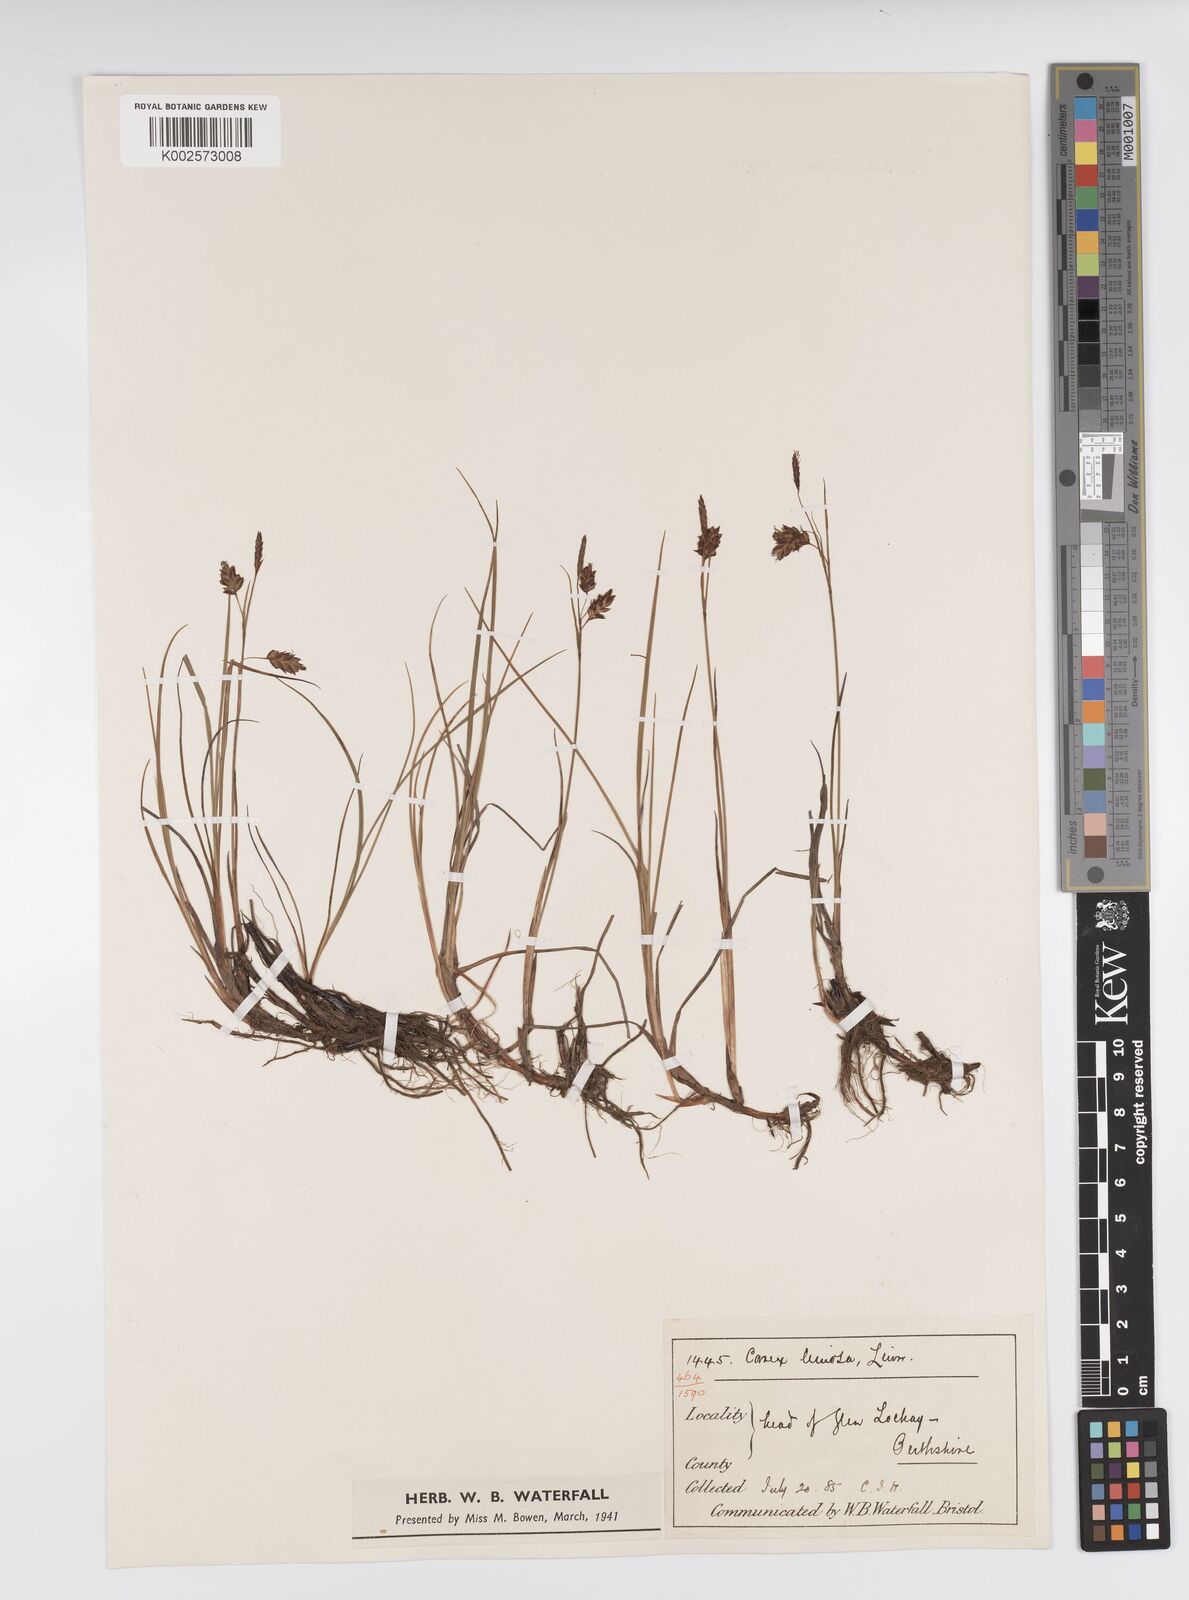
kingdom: Plantae
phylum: Tracheophyta
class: Liliopsida
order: Poales
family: Cyperaceae
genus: Carex
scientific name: Carex limosa
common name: Bog sedge
